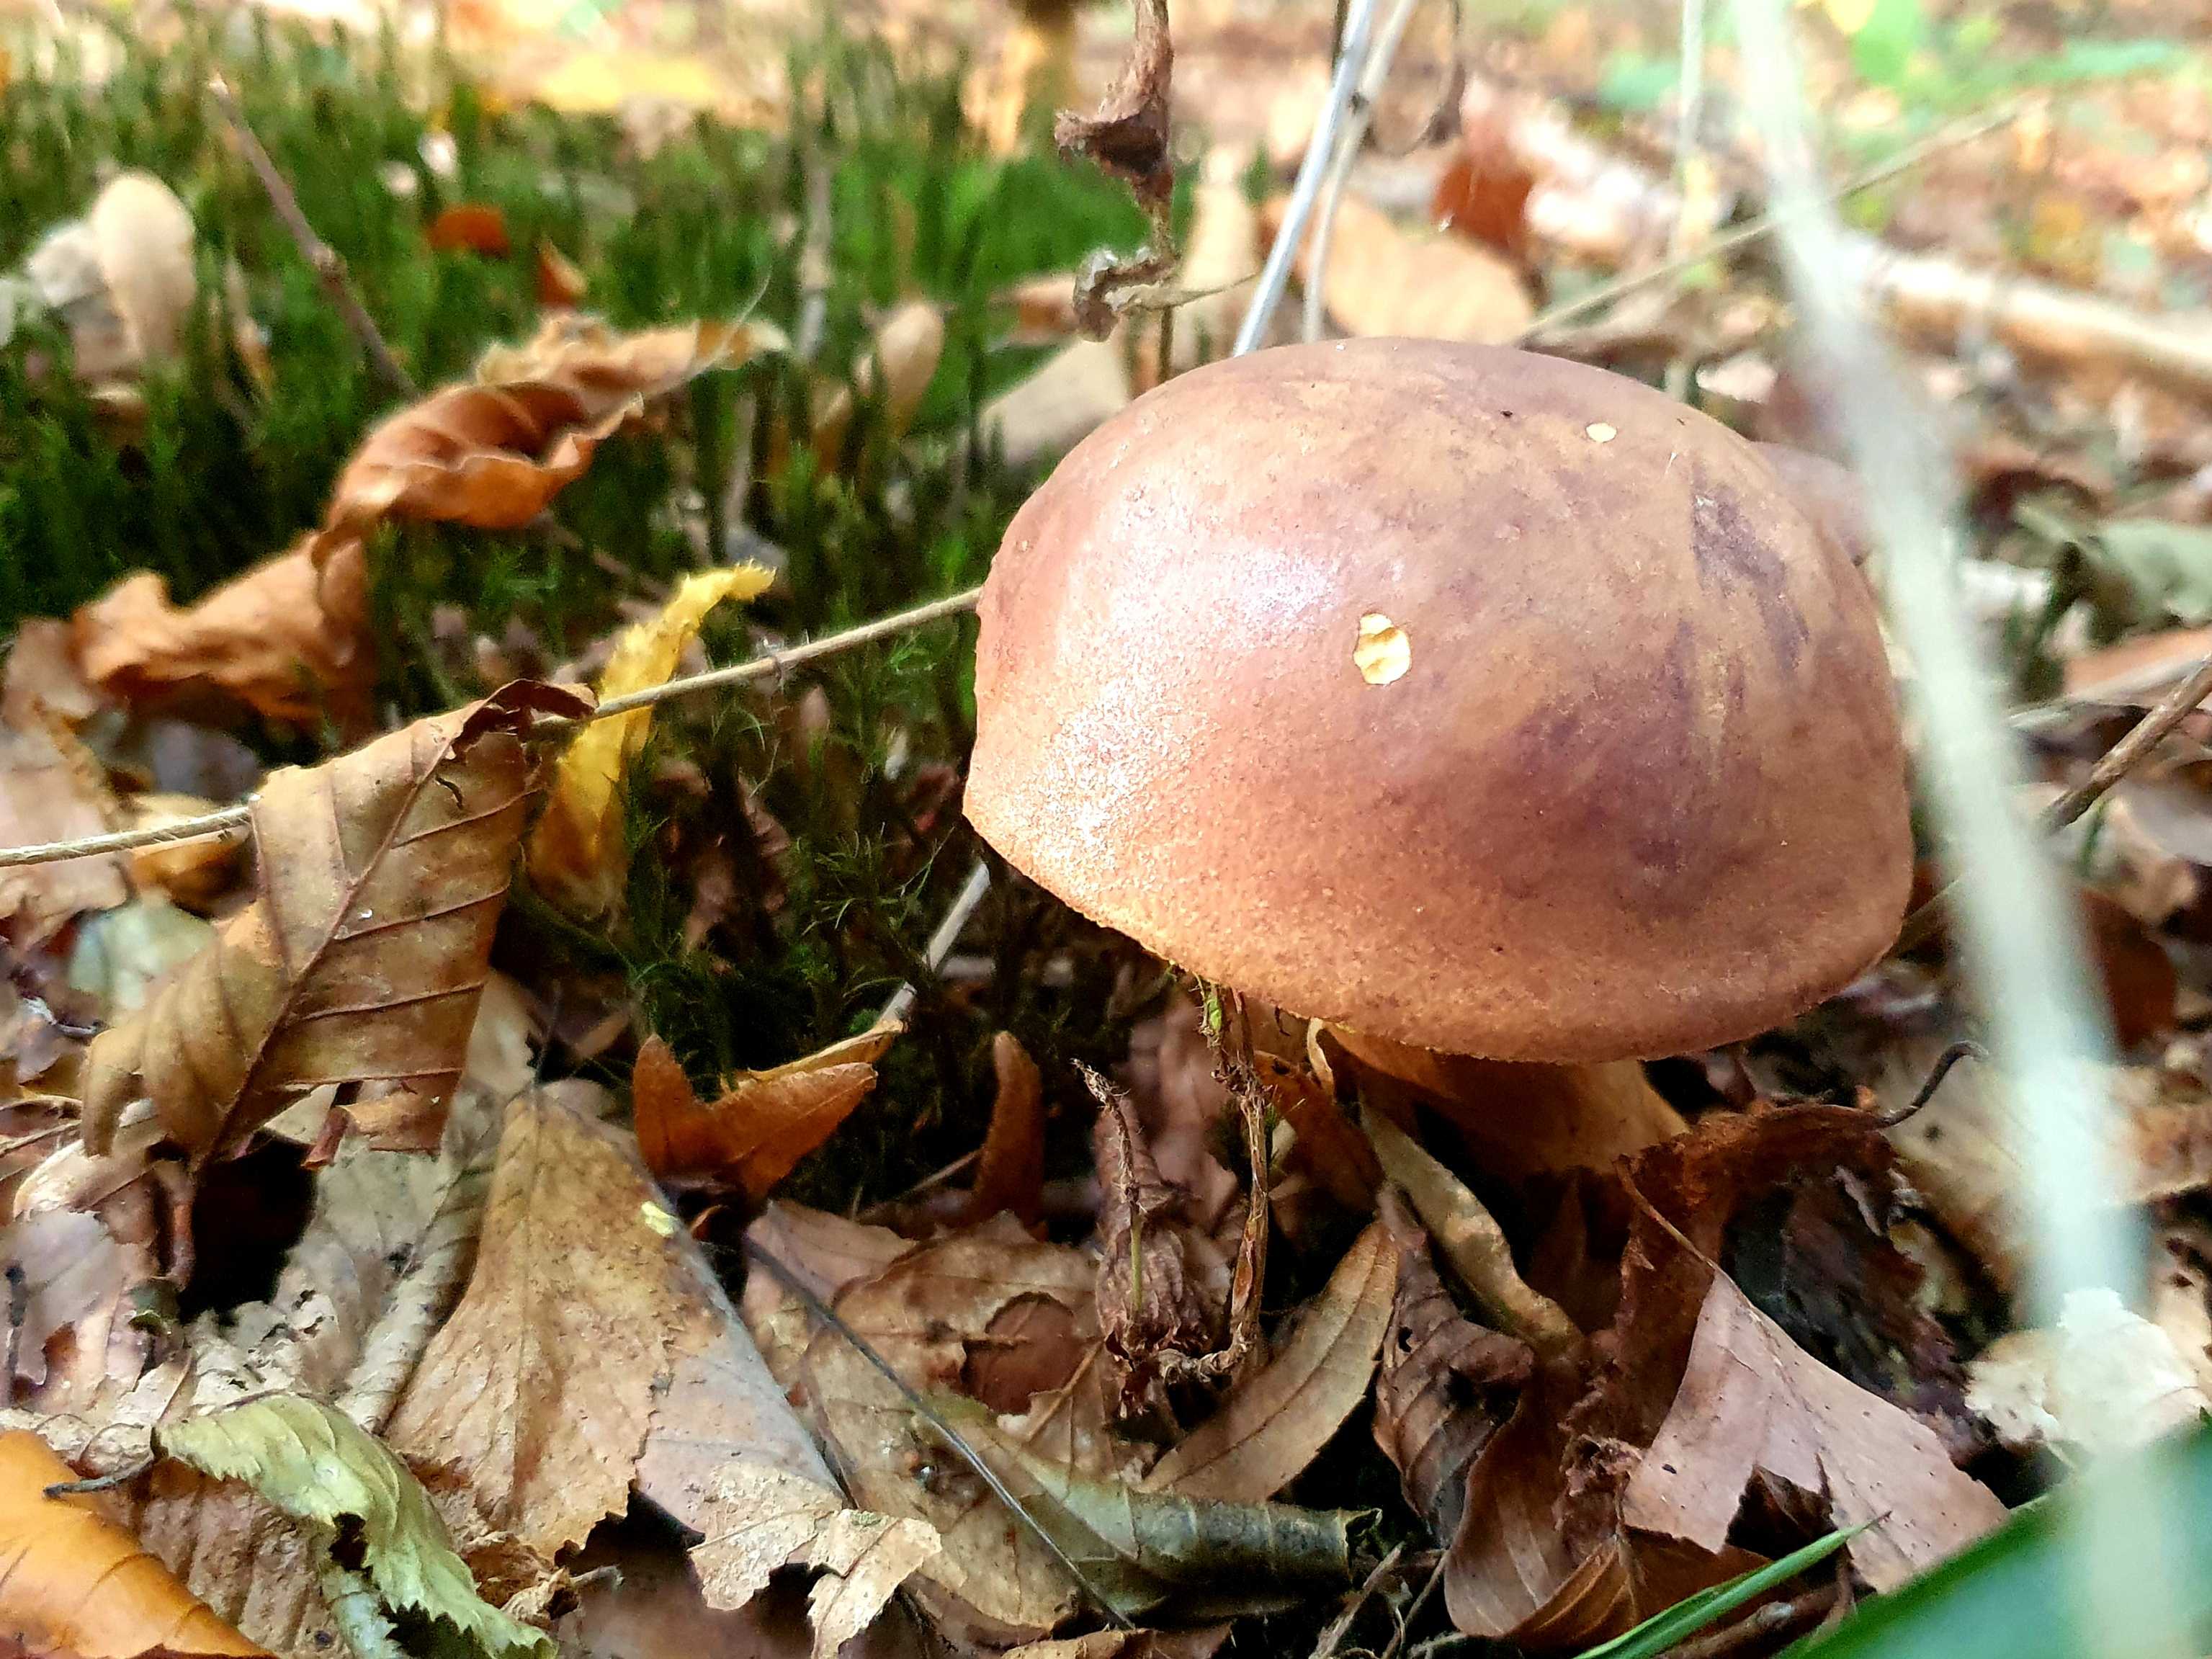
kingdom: Fungi
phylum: Basidiomycota
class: Agaricomycetes
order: Boletales
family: Boletaceae
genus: Imleria
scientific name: Imleria badia
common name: brunstokket rørhat
